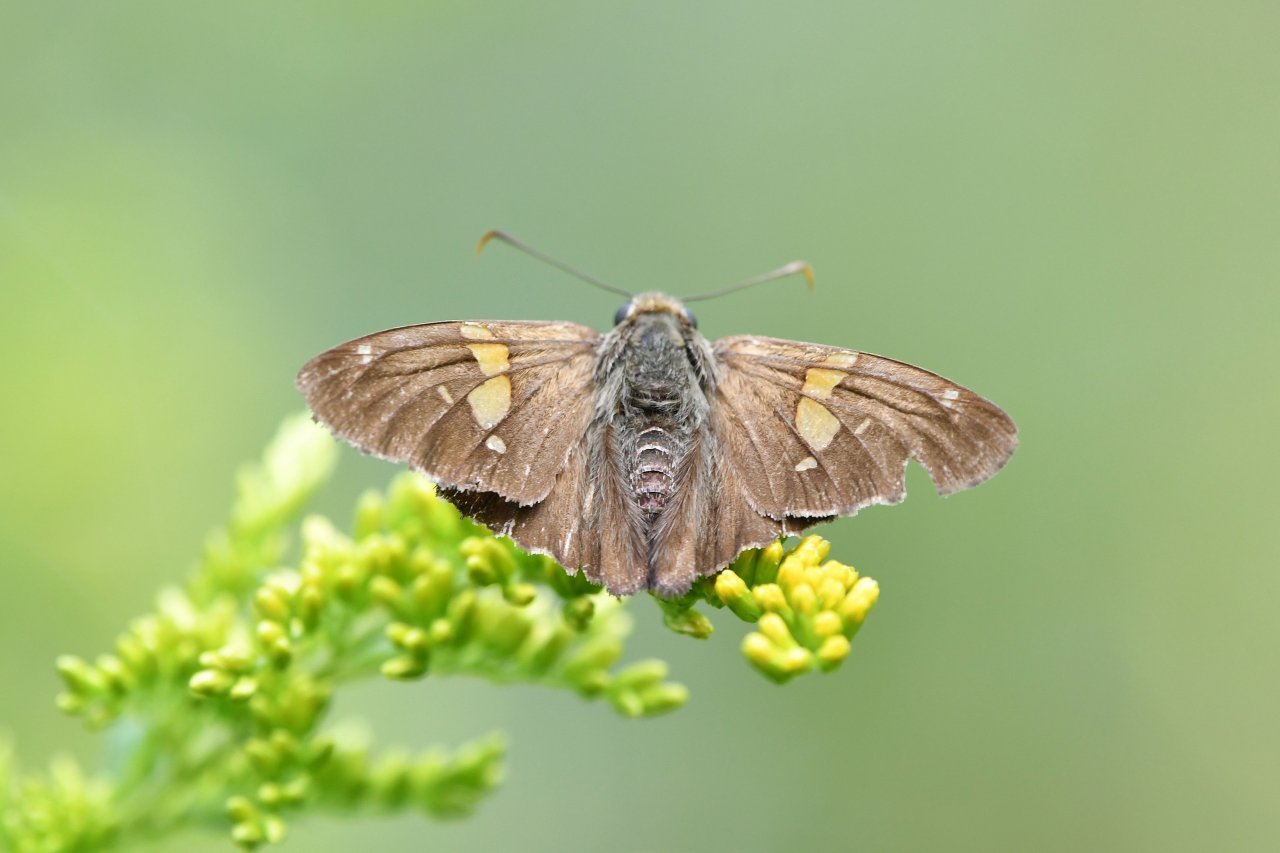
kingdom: Animalia
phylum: Arthropoda
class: Insecta
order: Lepidoptera
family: Hesperiidae
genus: Epargyreus
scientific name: Epargyreus clarus
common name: Silver-spotted Skipper
